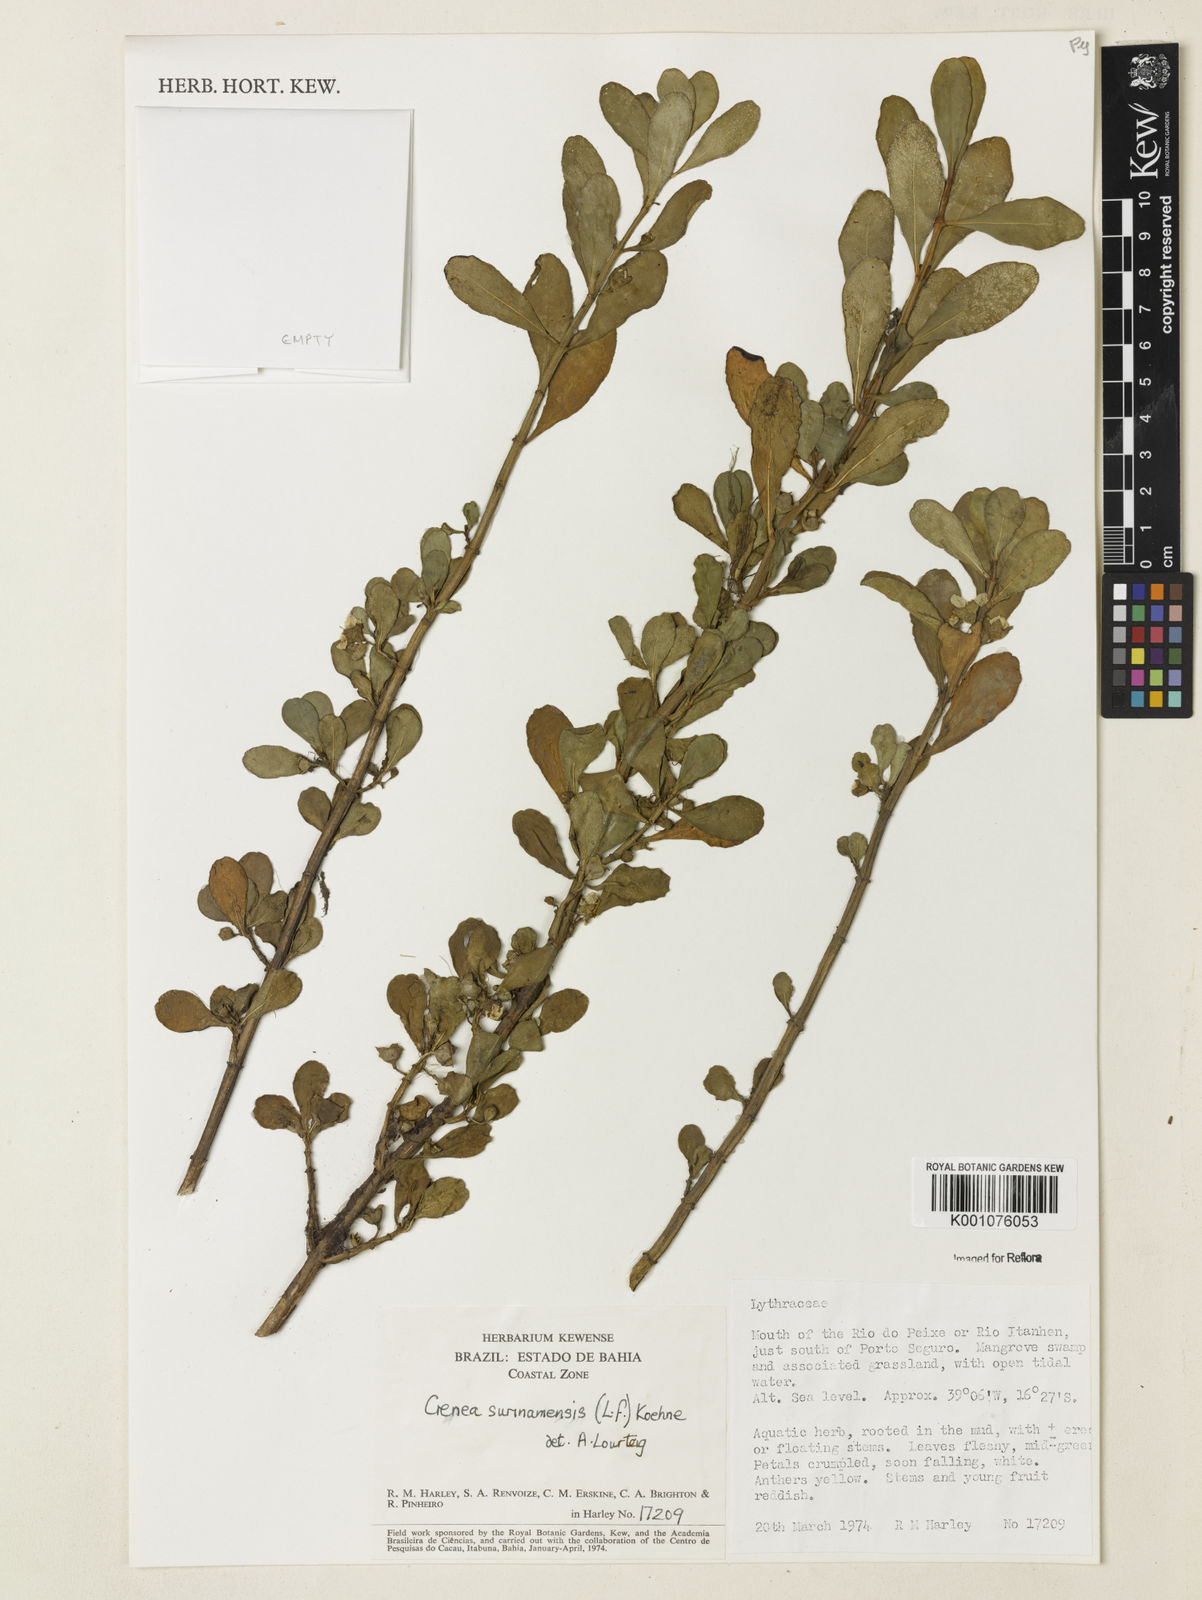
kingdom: Plantae
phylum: Tracheophyta
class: Magnoliopsida
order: Myrtales
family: Lythraceae
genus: Ammannia
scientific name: Ammannia maritima
